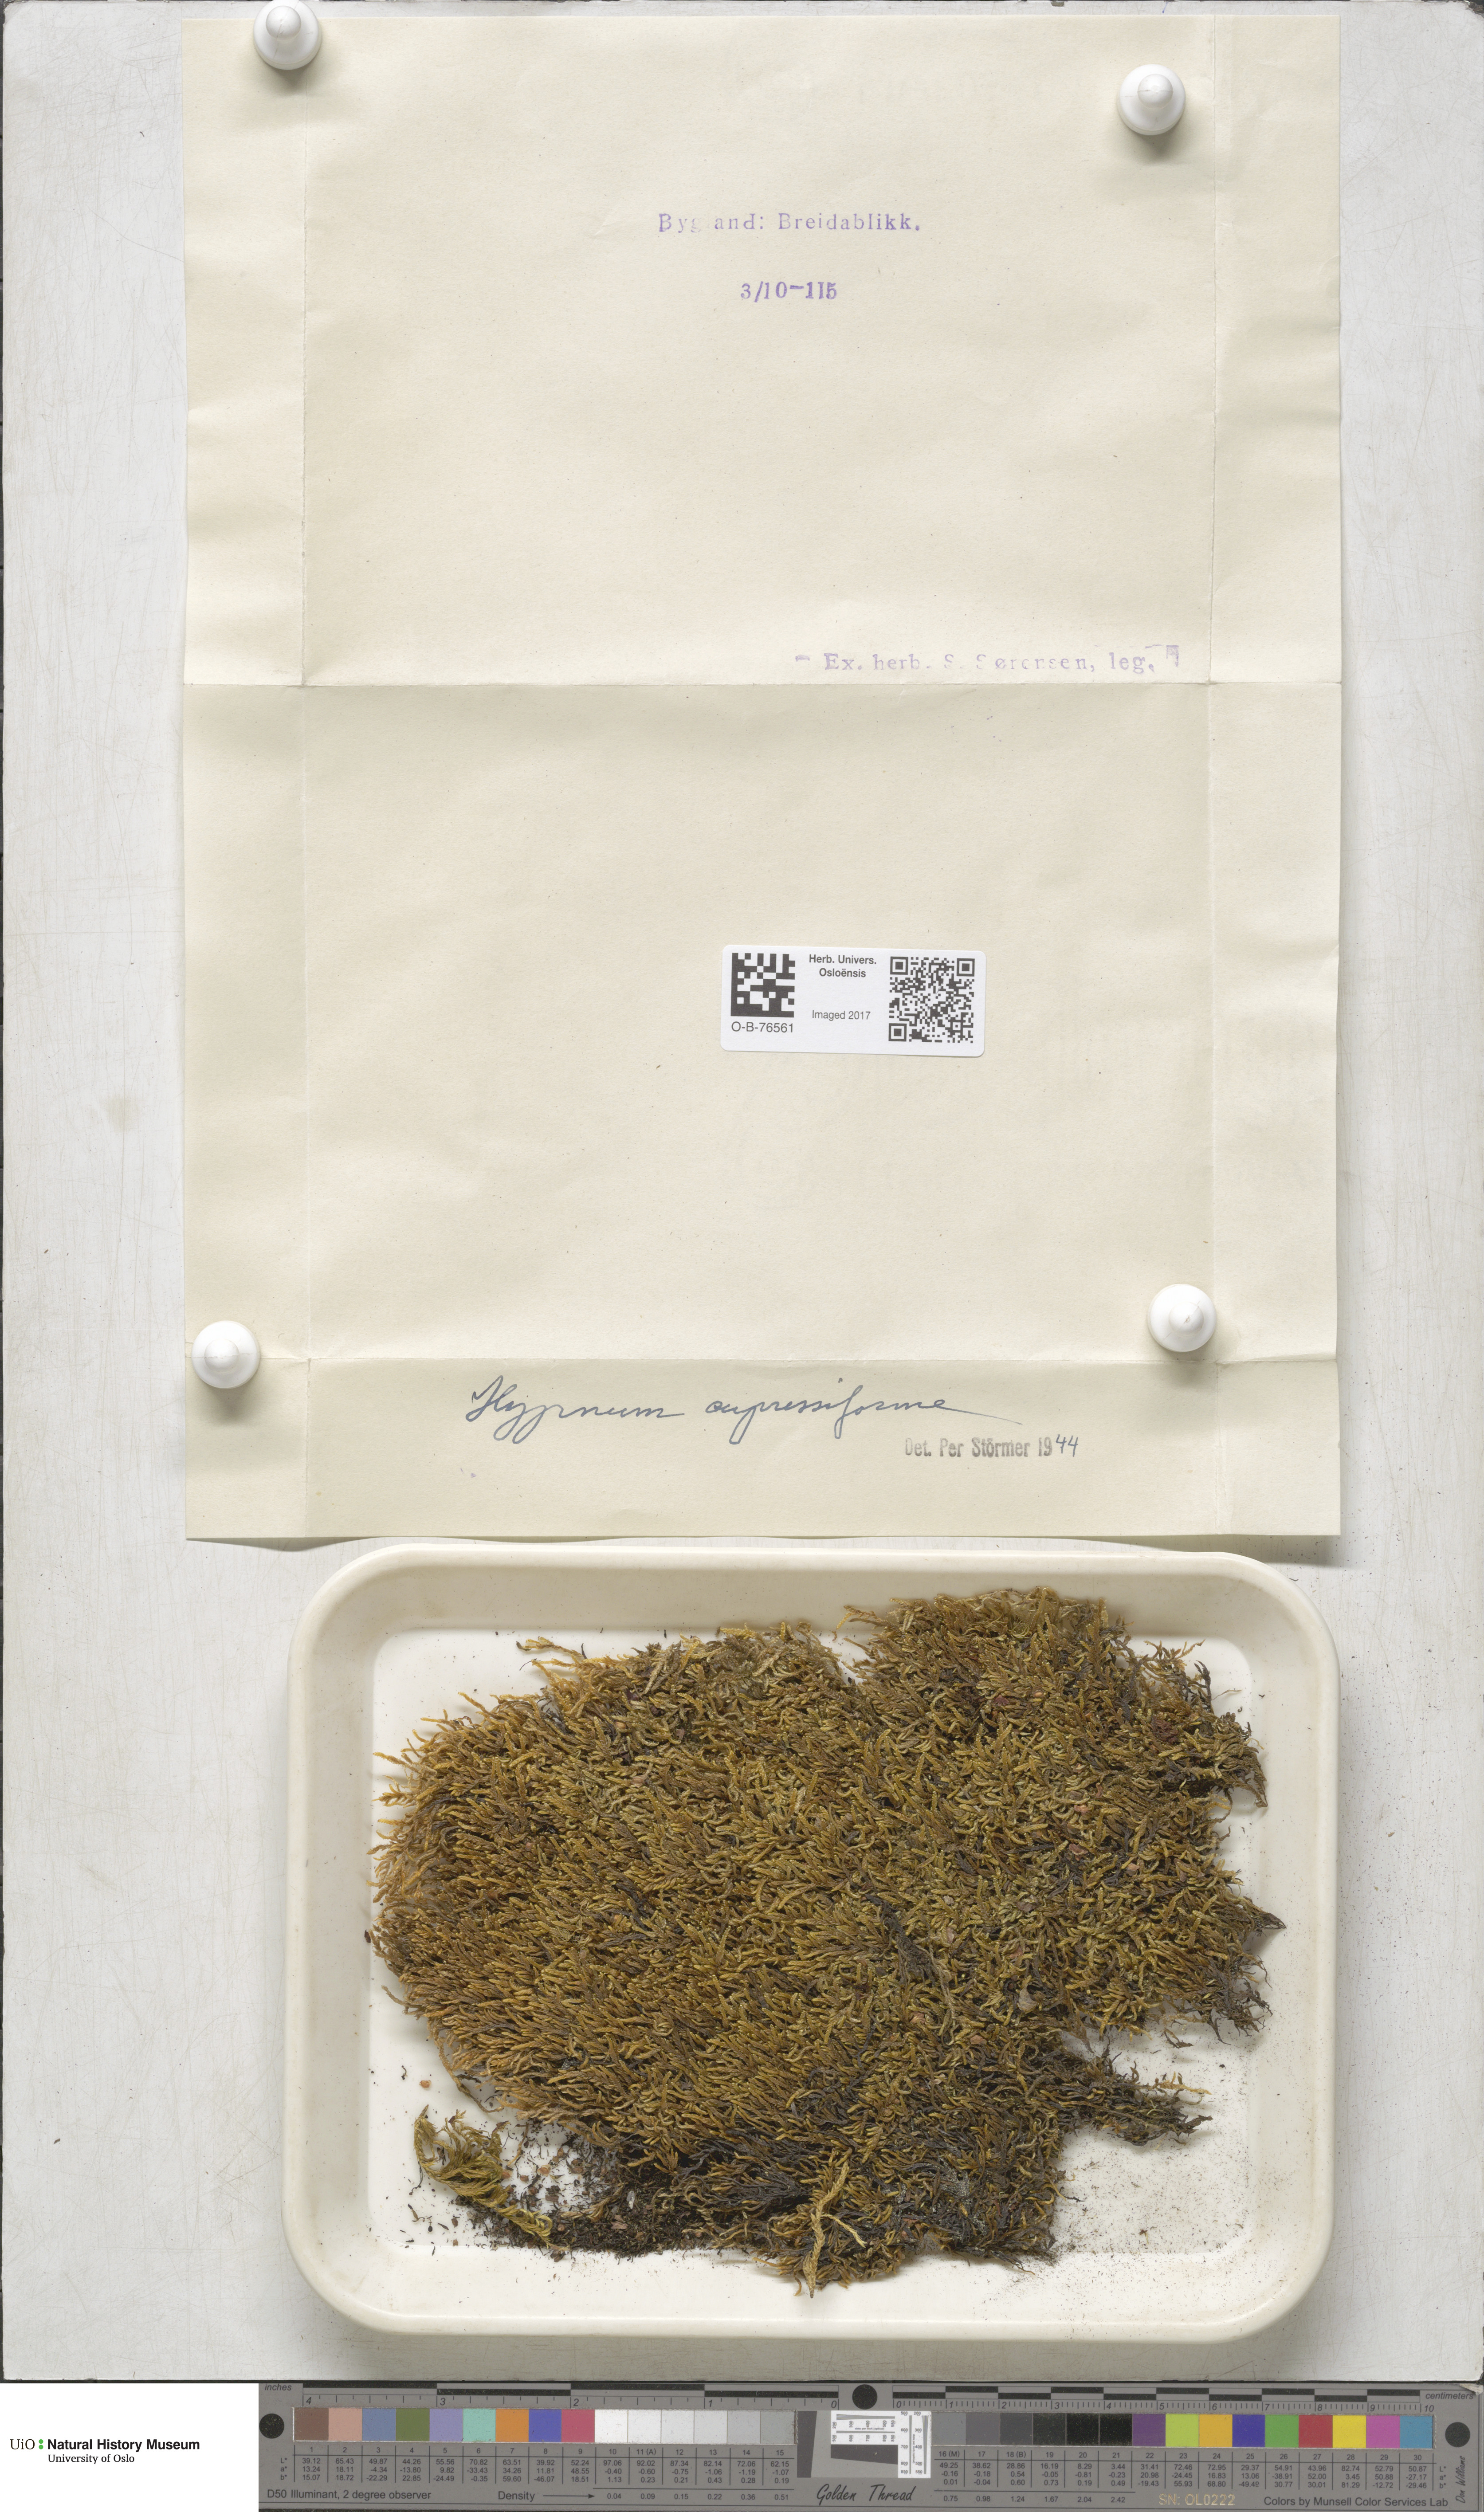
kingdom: Plantae
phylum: Bryophyta
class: Bryopsida
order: Hypnales
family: Hypnaceae
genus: Hypnum
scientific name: Hypnum cupressiforme
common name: Cypress-leaved plait-moss
